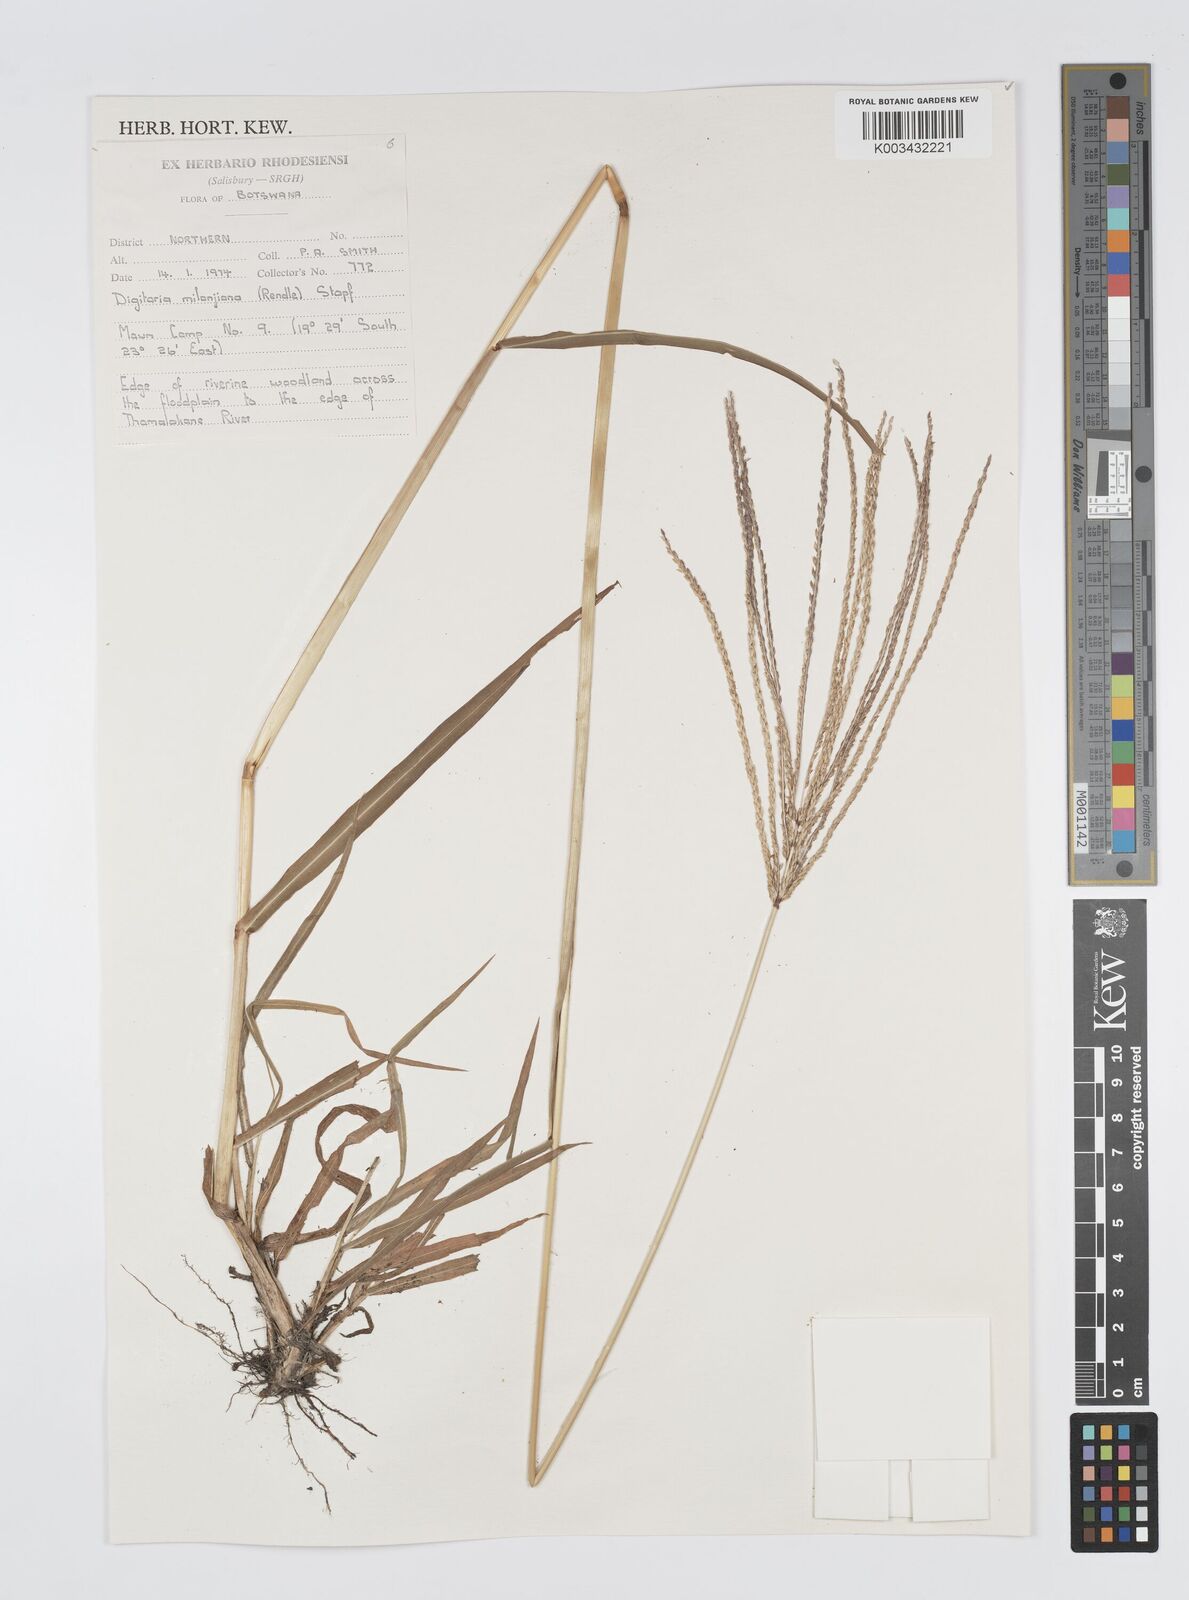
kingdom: Plantae
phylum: Tracheophyta
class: Liliopsida
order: Poales
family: Poaceae
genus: Digitaria
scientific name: Digitaria milanjiana
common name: Madagascar crabgrass
